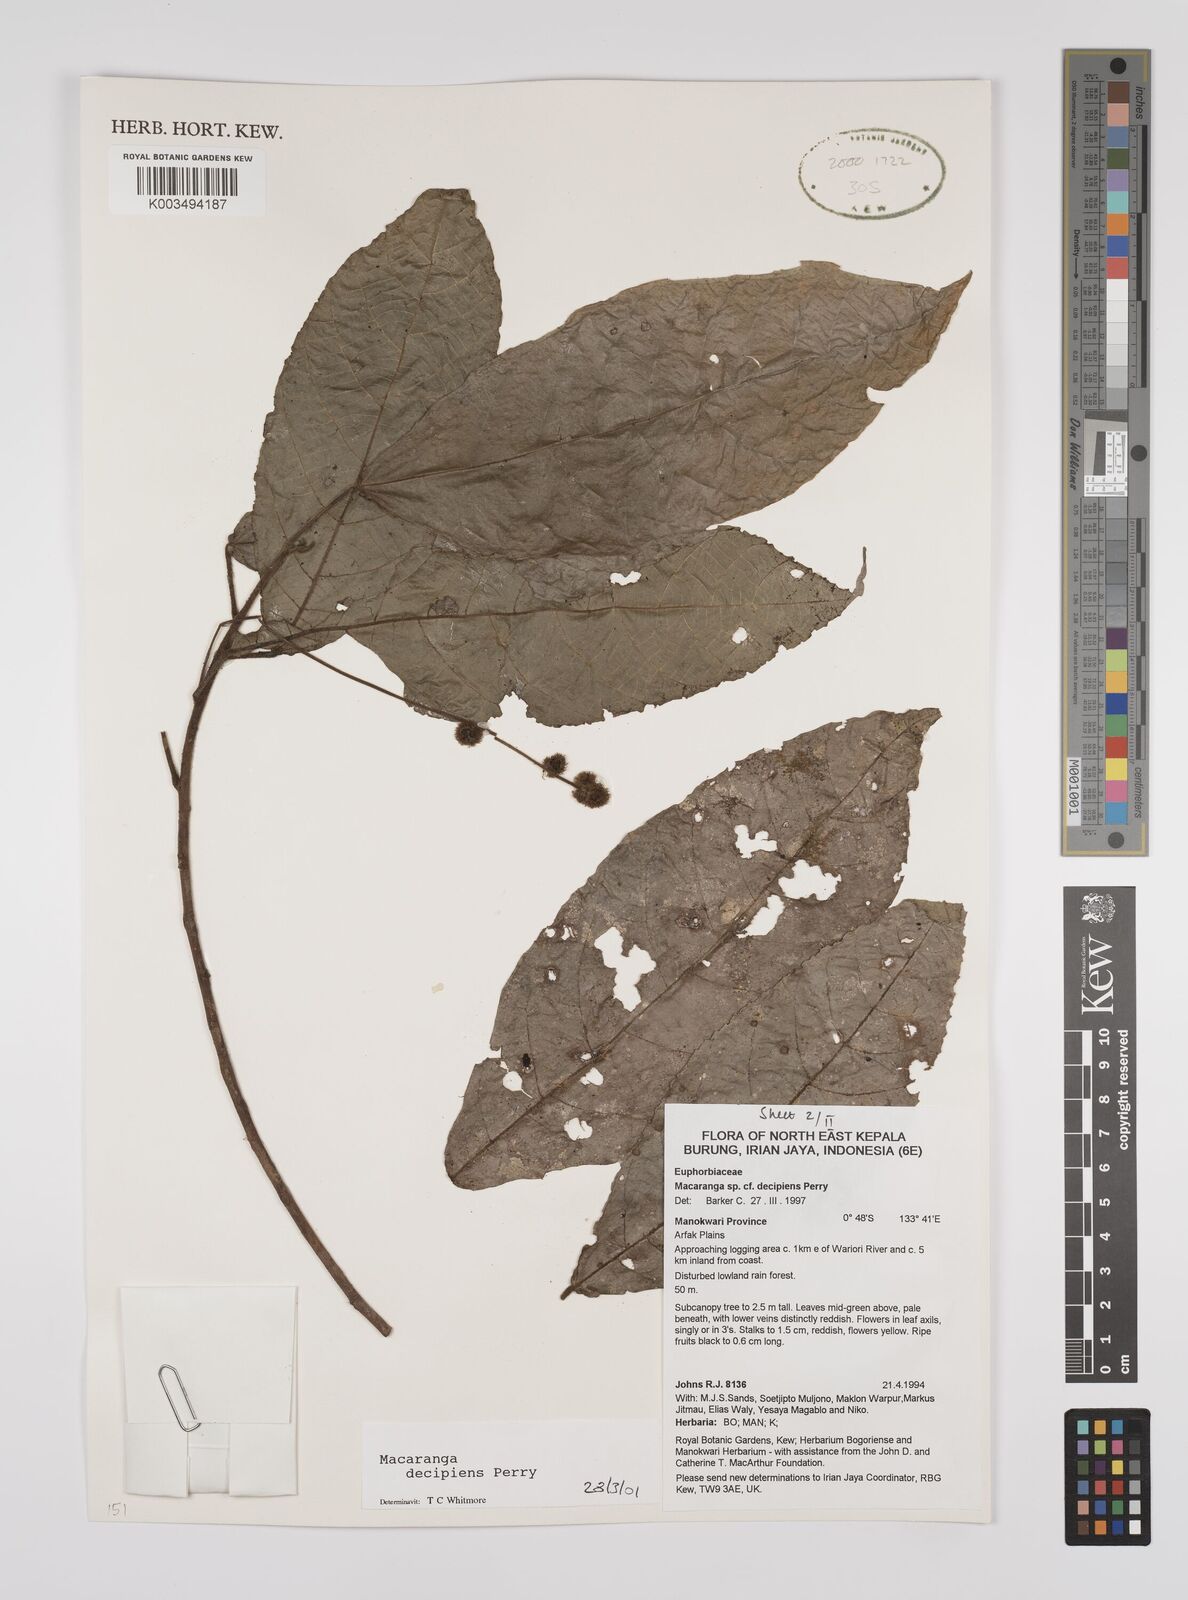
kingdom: Plantae
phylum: Tracheophyta
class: Magnoliopsida
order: Malpighiales
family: Euphorbiaceae
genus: Macaranga
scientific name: Macaranga decipiens
